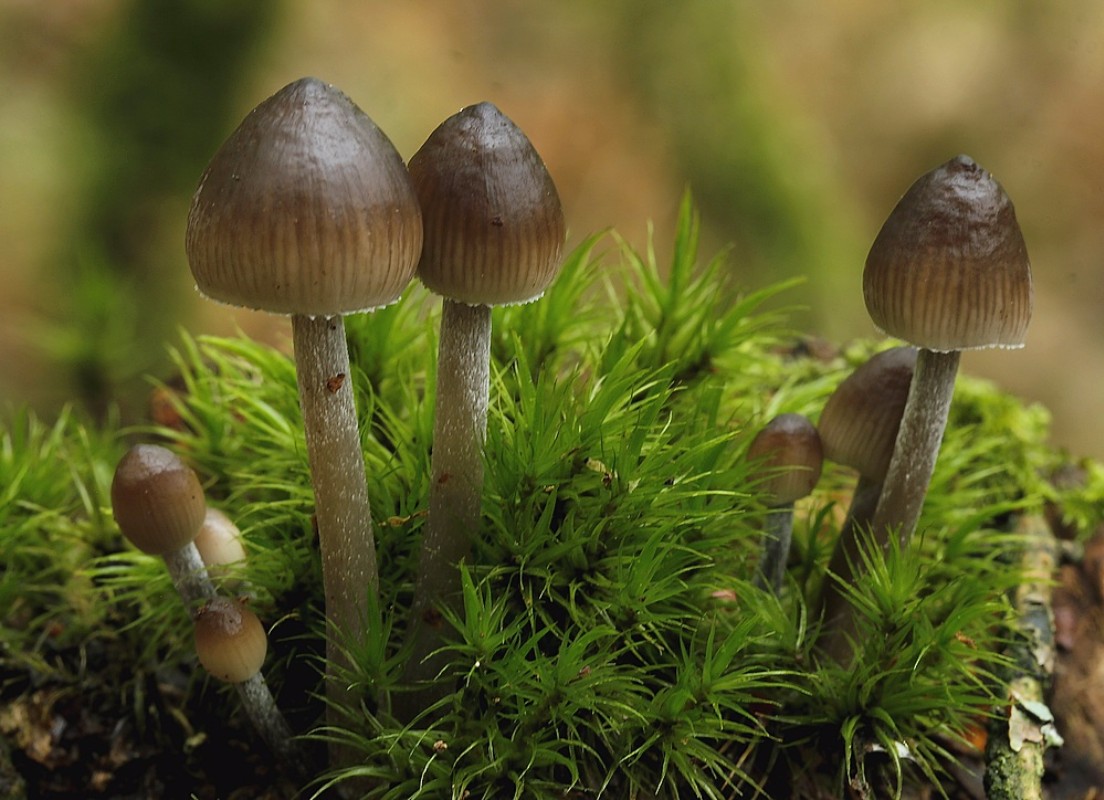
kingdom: Fungi
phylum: Basidiomycota
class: Agaricomycetes
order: Agaricales
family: Mycenaceae
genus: Mycena
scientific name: Mycena haematopus
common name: blødende huesvamp
